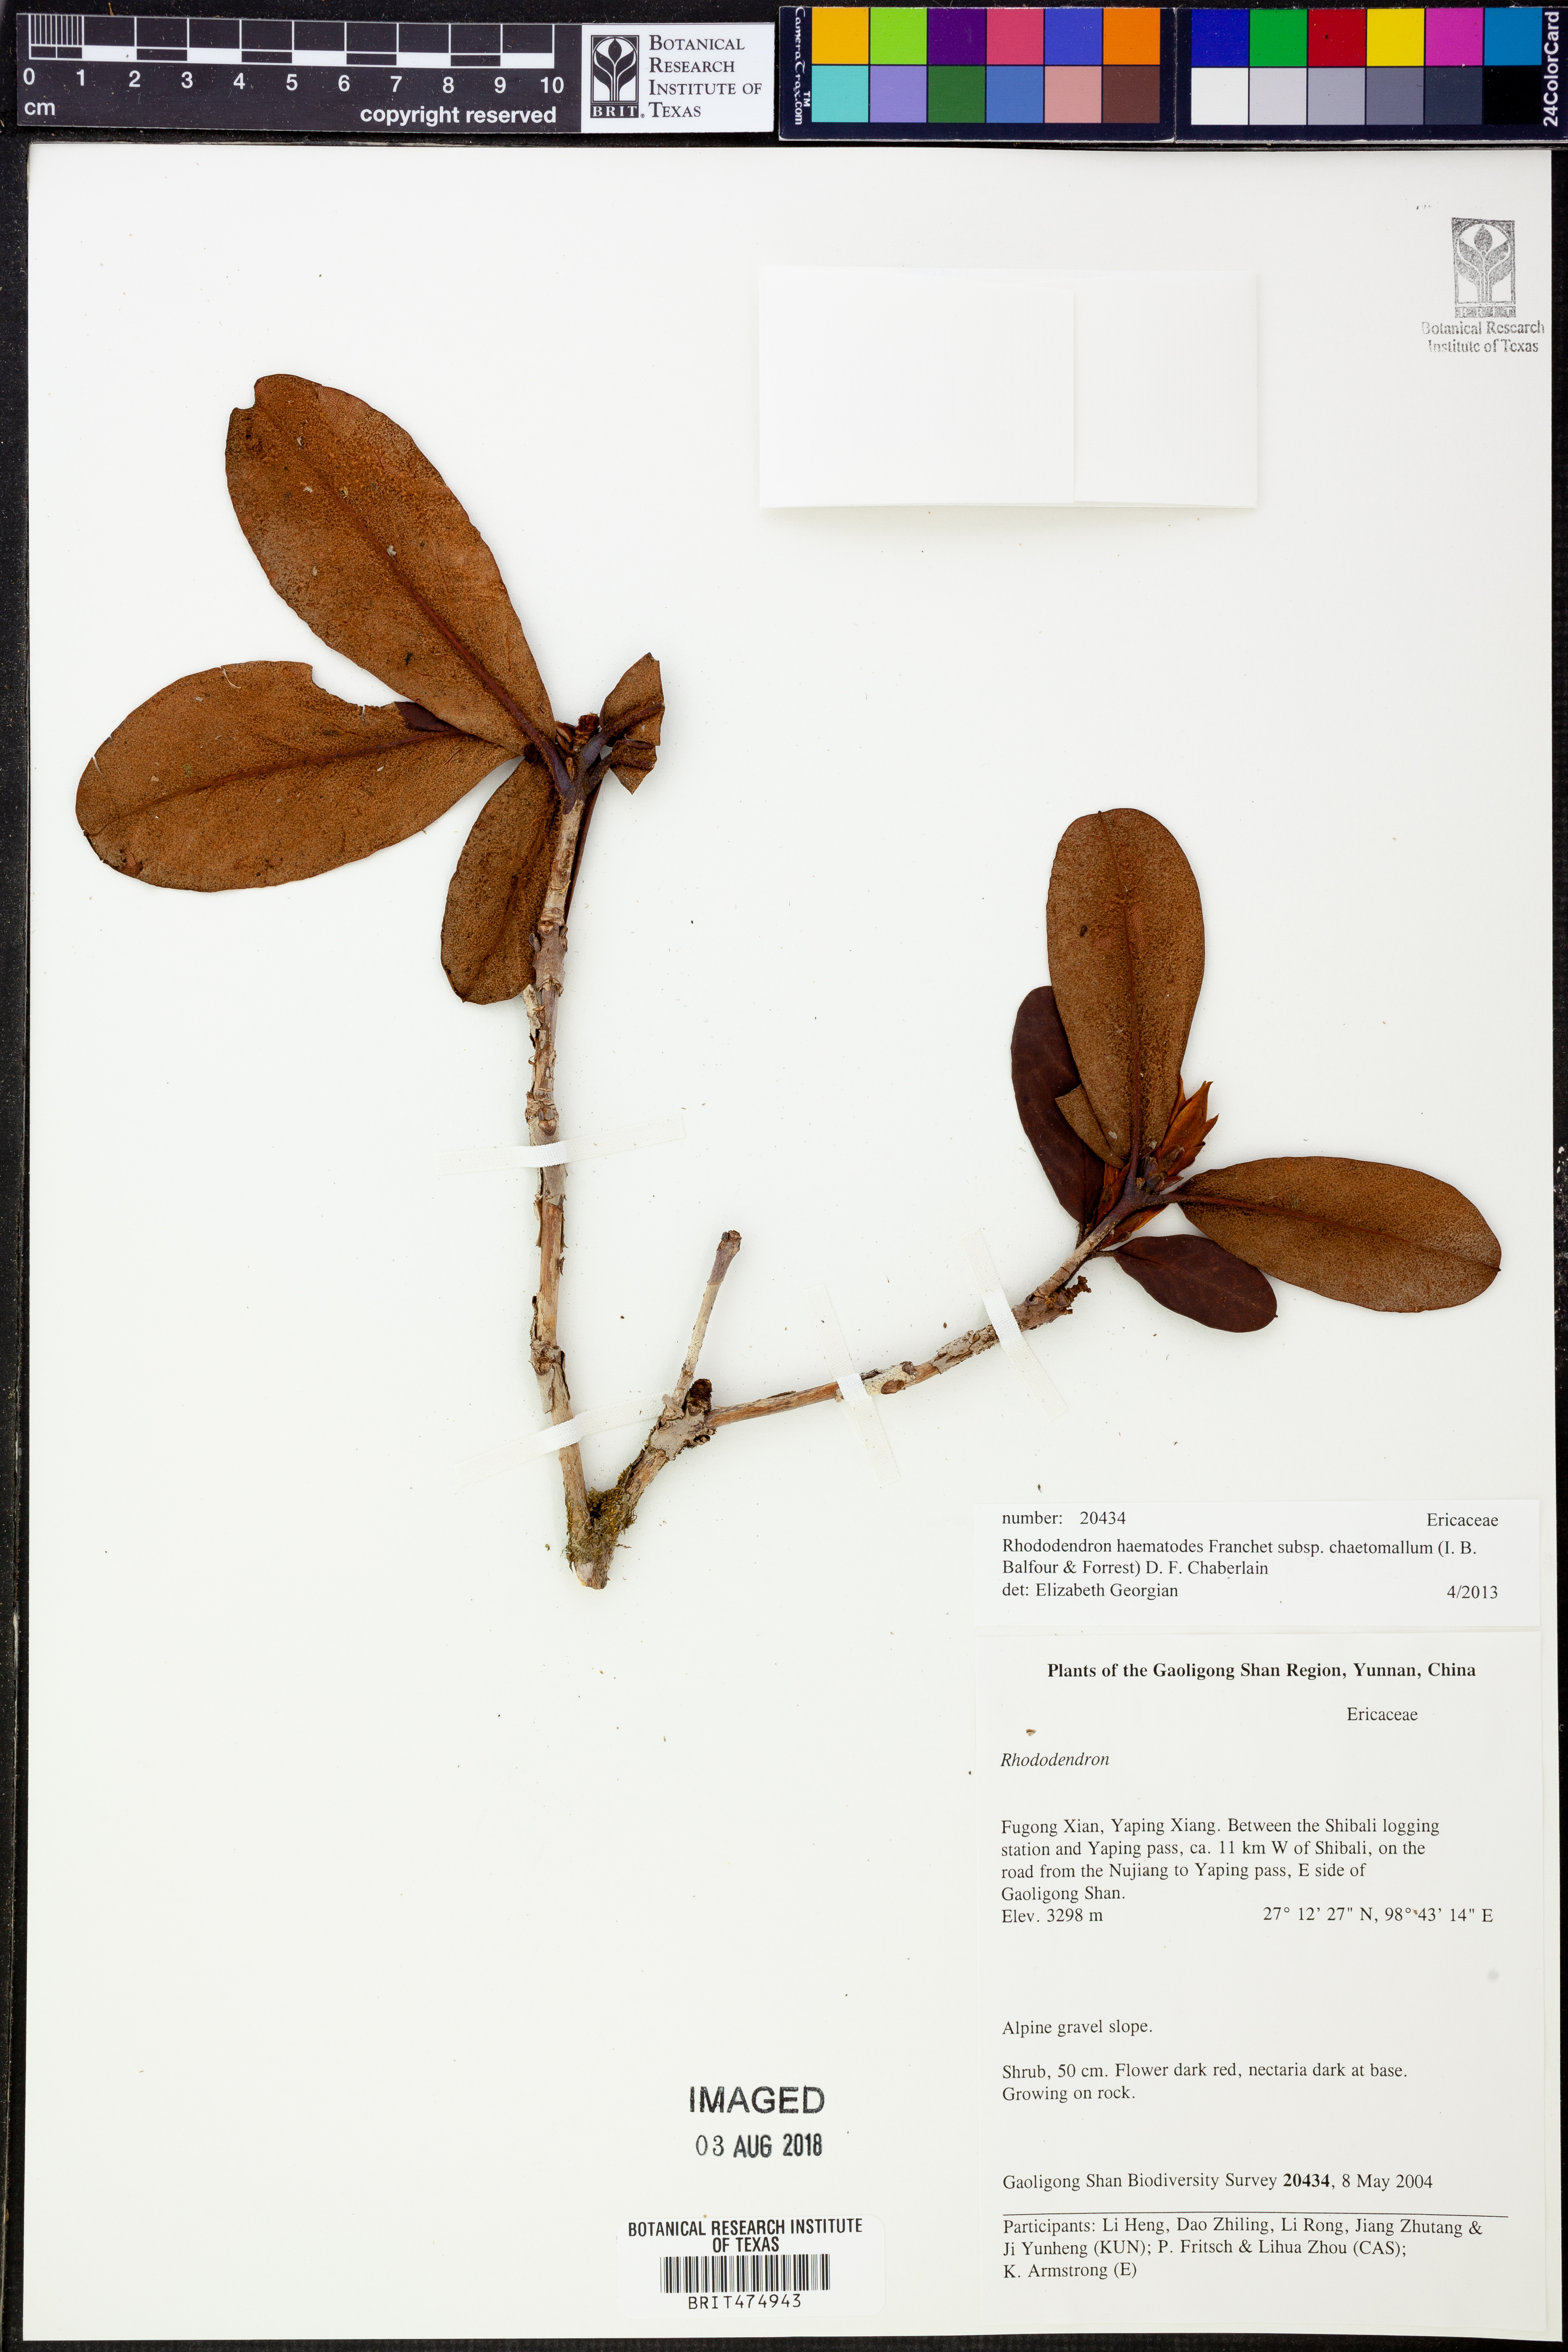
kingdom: Plantae
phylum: Tracheophyta
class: Magnoliopsida
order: Ericales
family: Ericaceae
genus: Rhododendron
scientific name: Rhododendron haematodes
